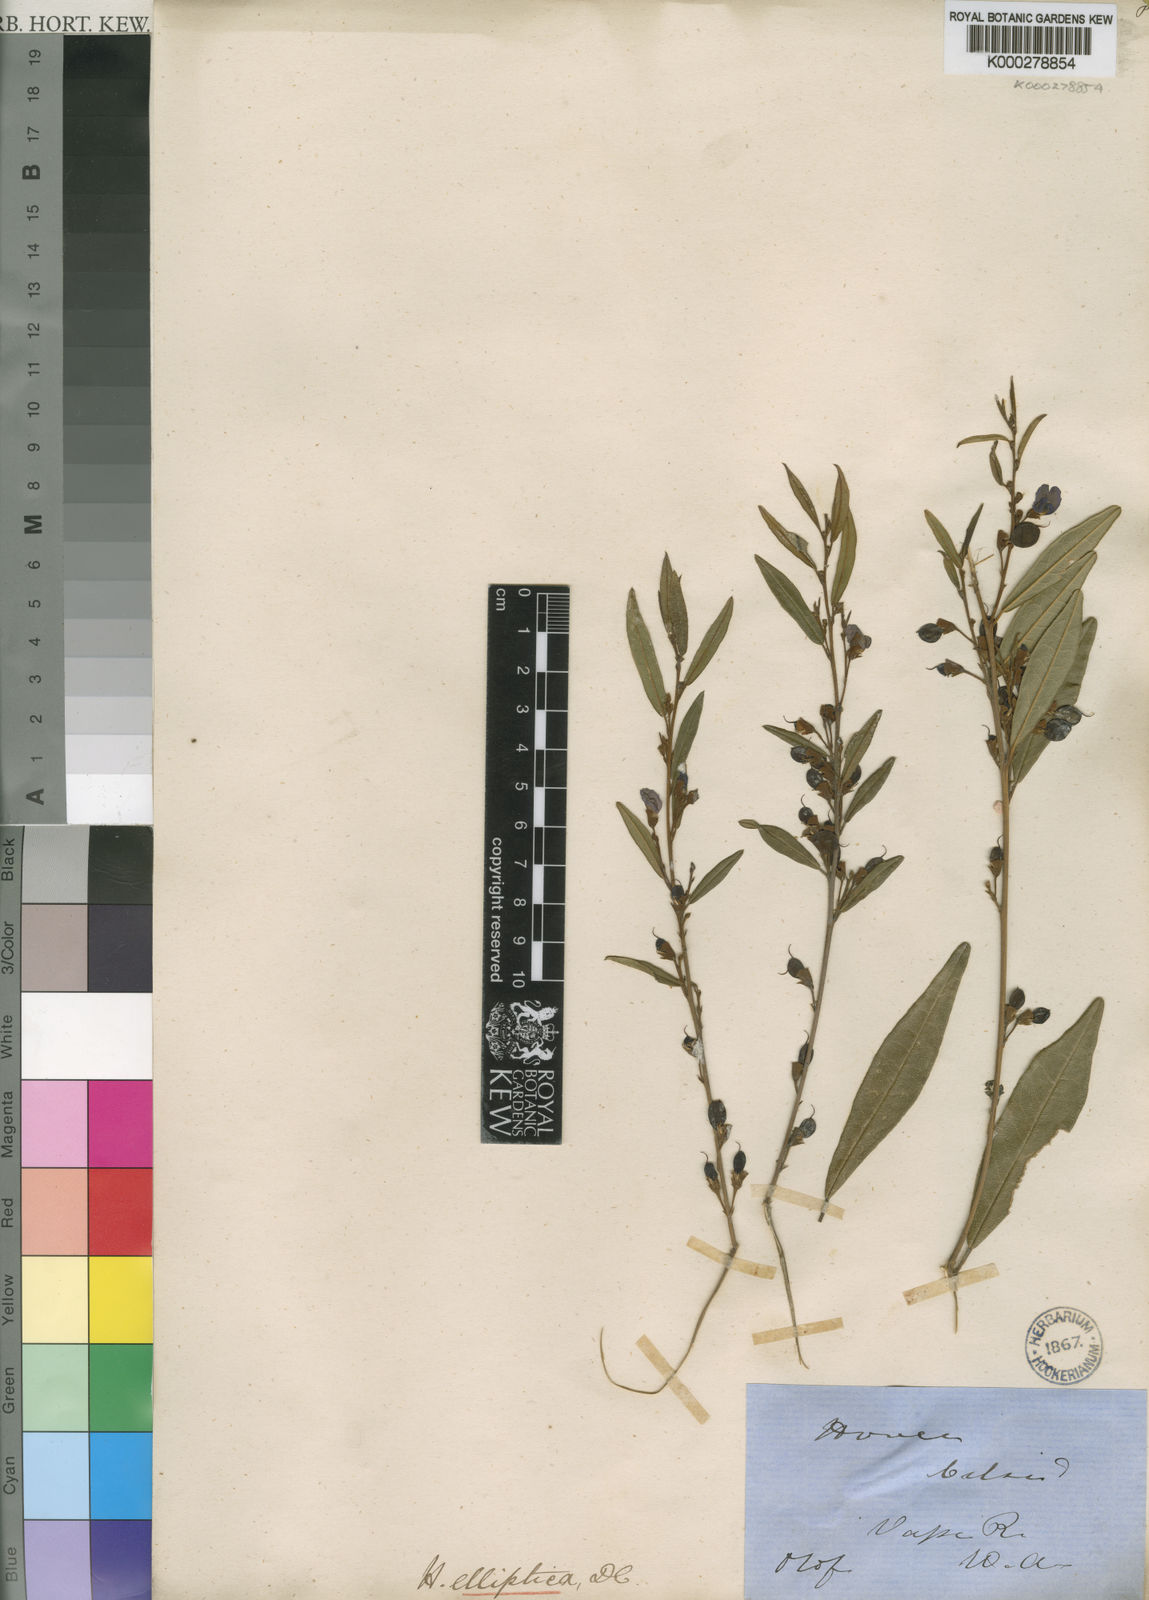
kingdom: Plantae
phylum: Tracheophyta
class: Magnoliopsida
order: Fabales
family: Fabaceae
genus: Hovea
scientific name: Hovea elliptica
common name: Tree hovea
